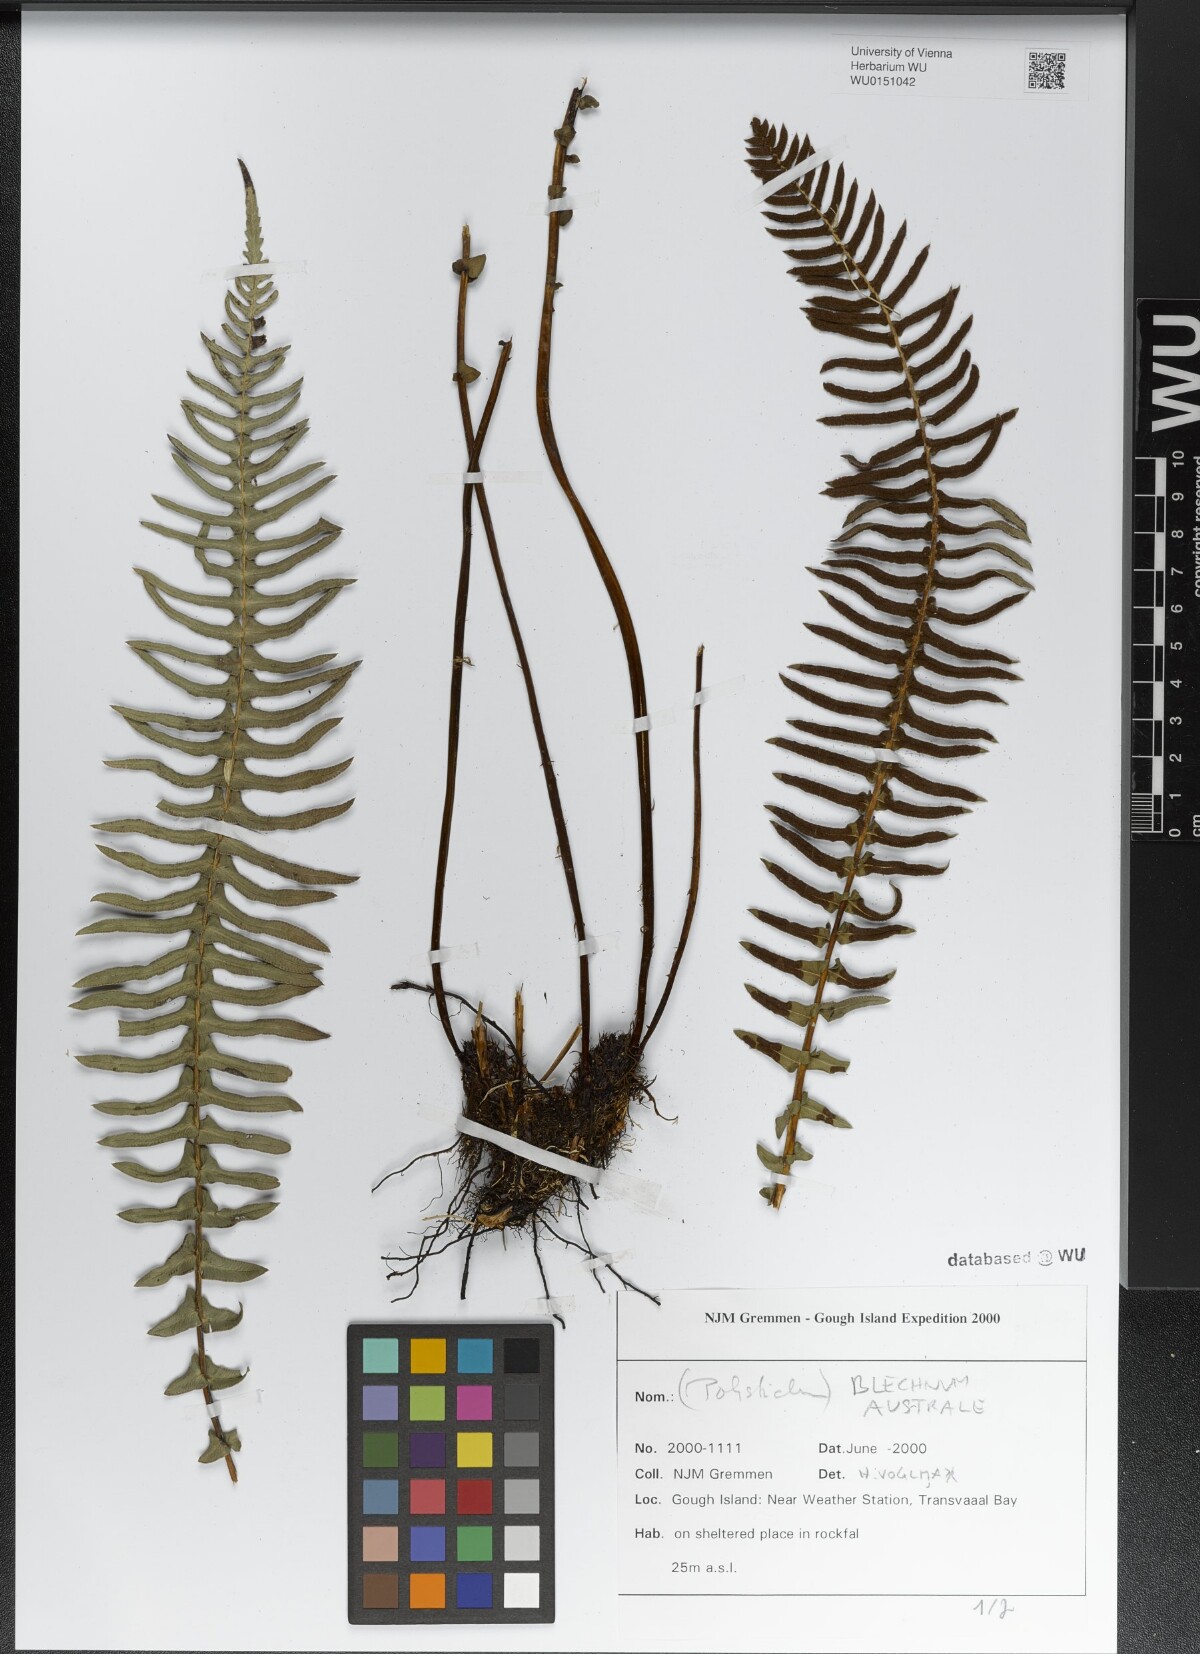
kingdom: Plantae
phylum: Tracheophyta
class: Polypodiopsida
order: Polypodiales
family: Blechnaceae
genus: Blechnum
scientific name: Blechnum australe
